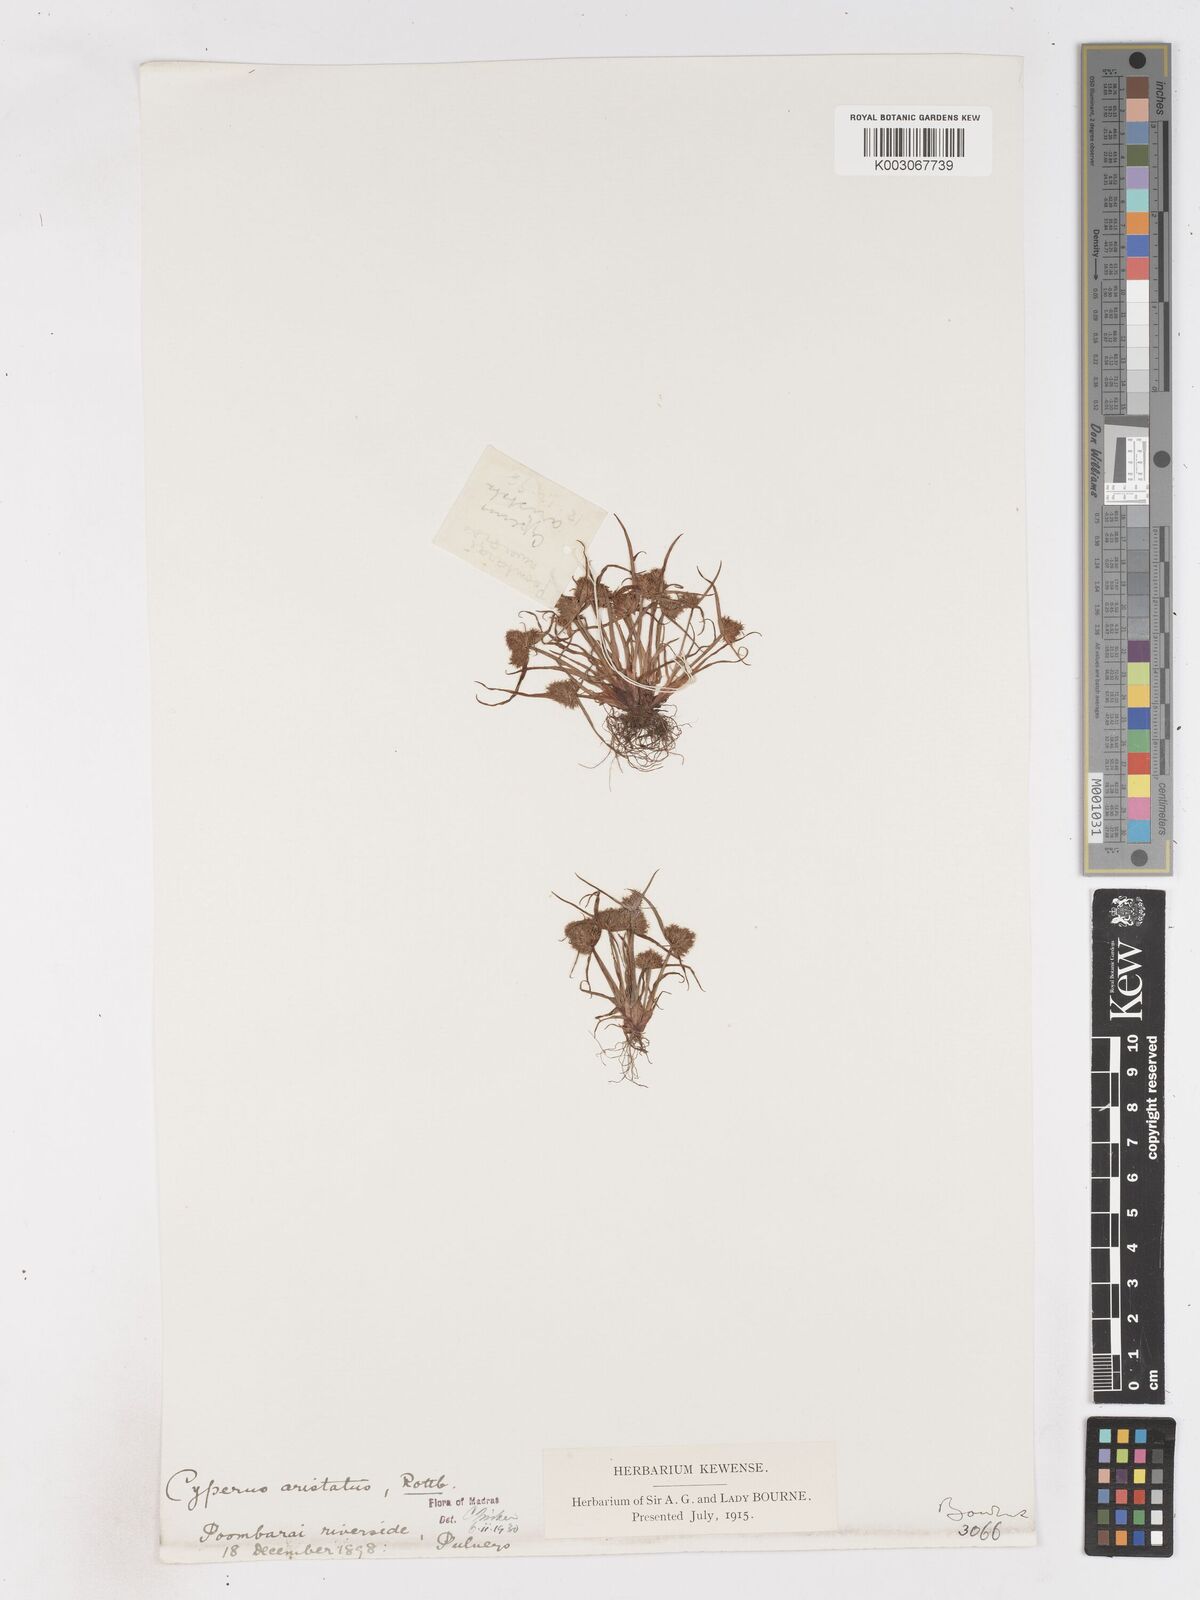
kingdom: Plantae
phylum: Tracheophyta
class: Liliopsida
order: Poales
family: Cyperaceae
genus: Cyperus
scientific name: Cyperus squarrosus
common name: Awned cyperus
